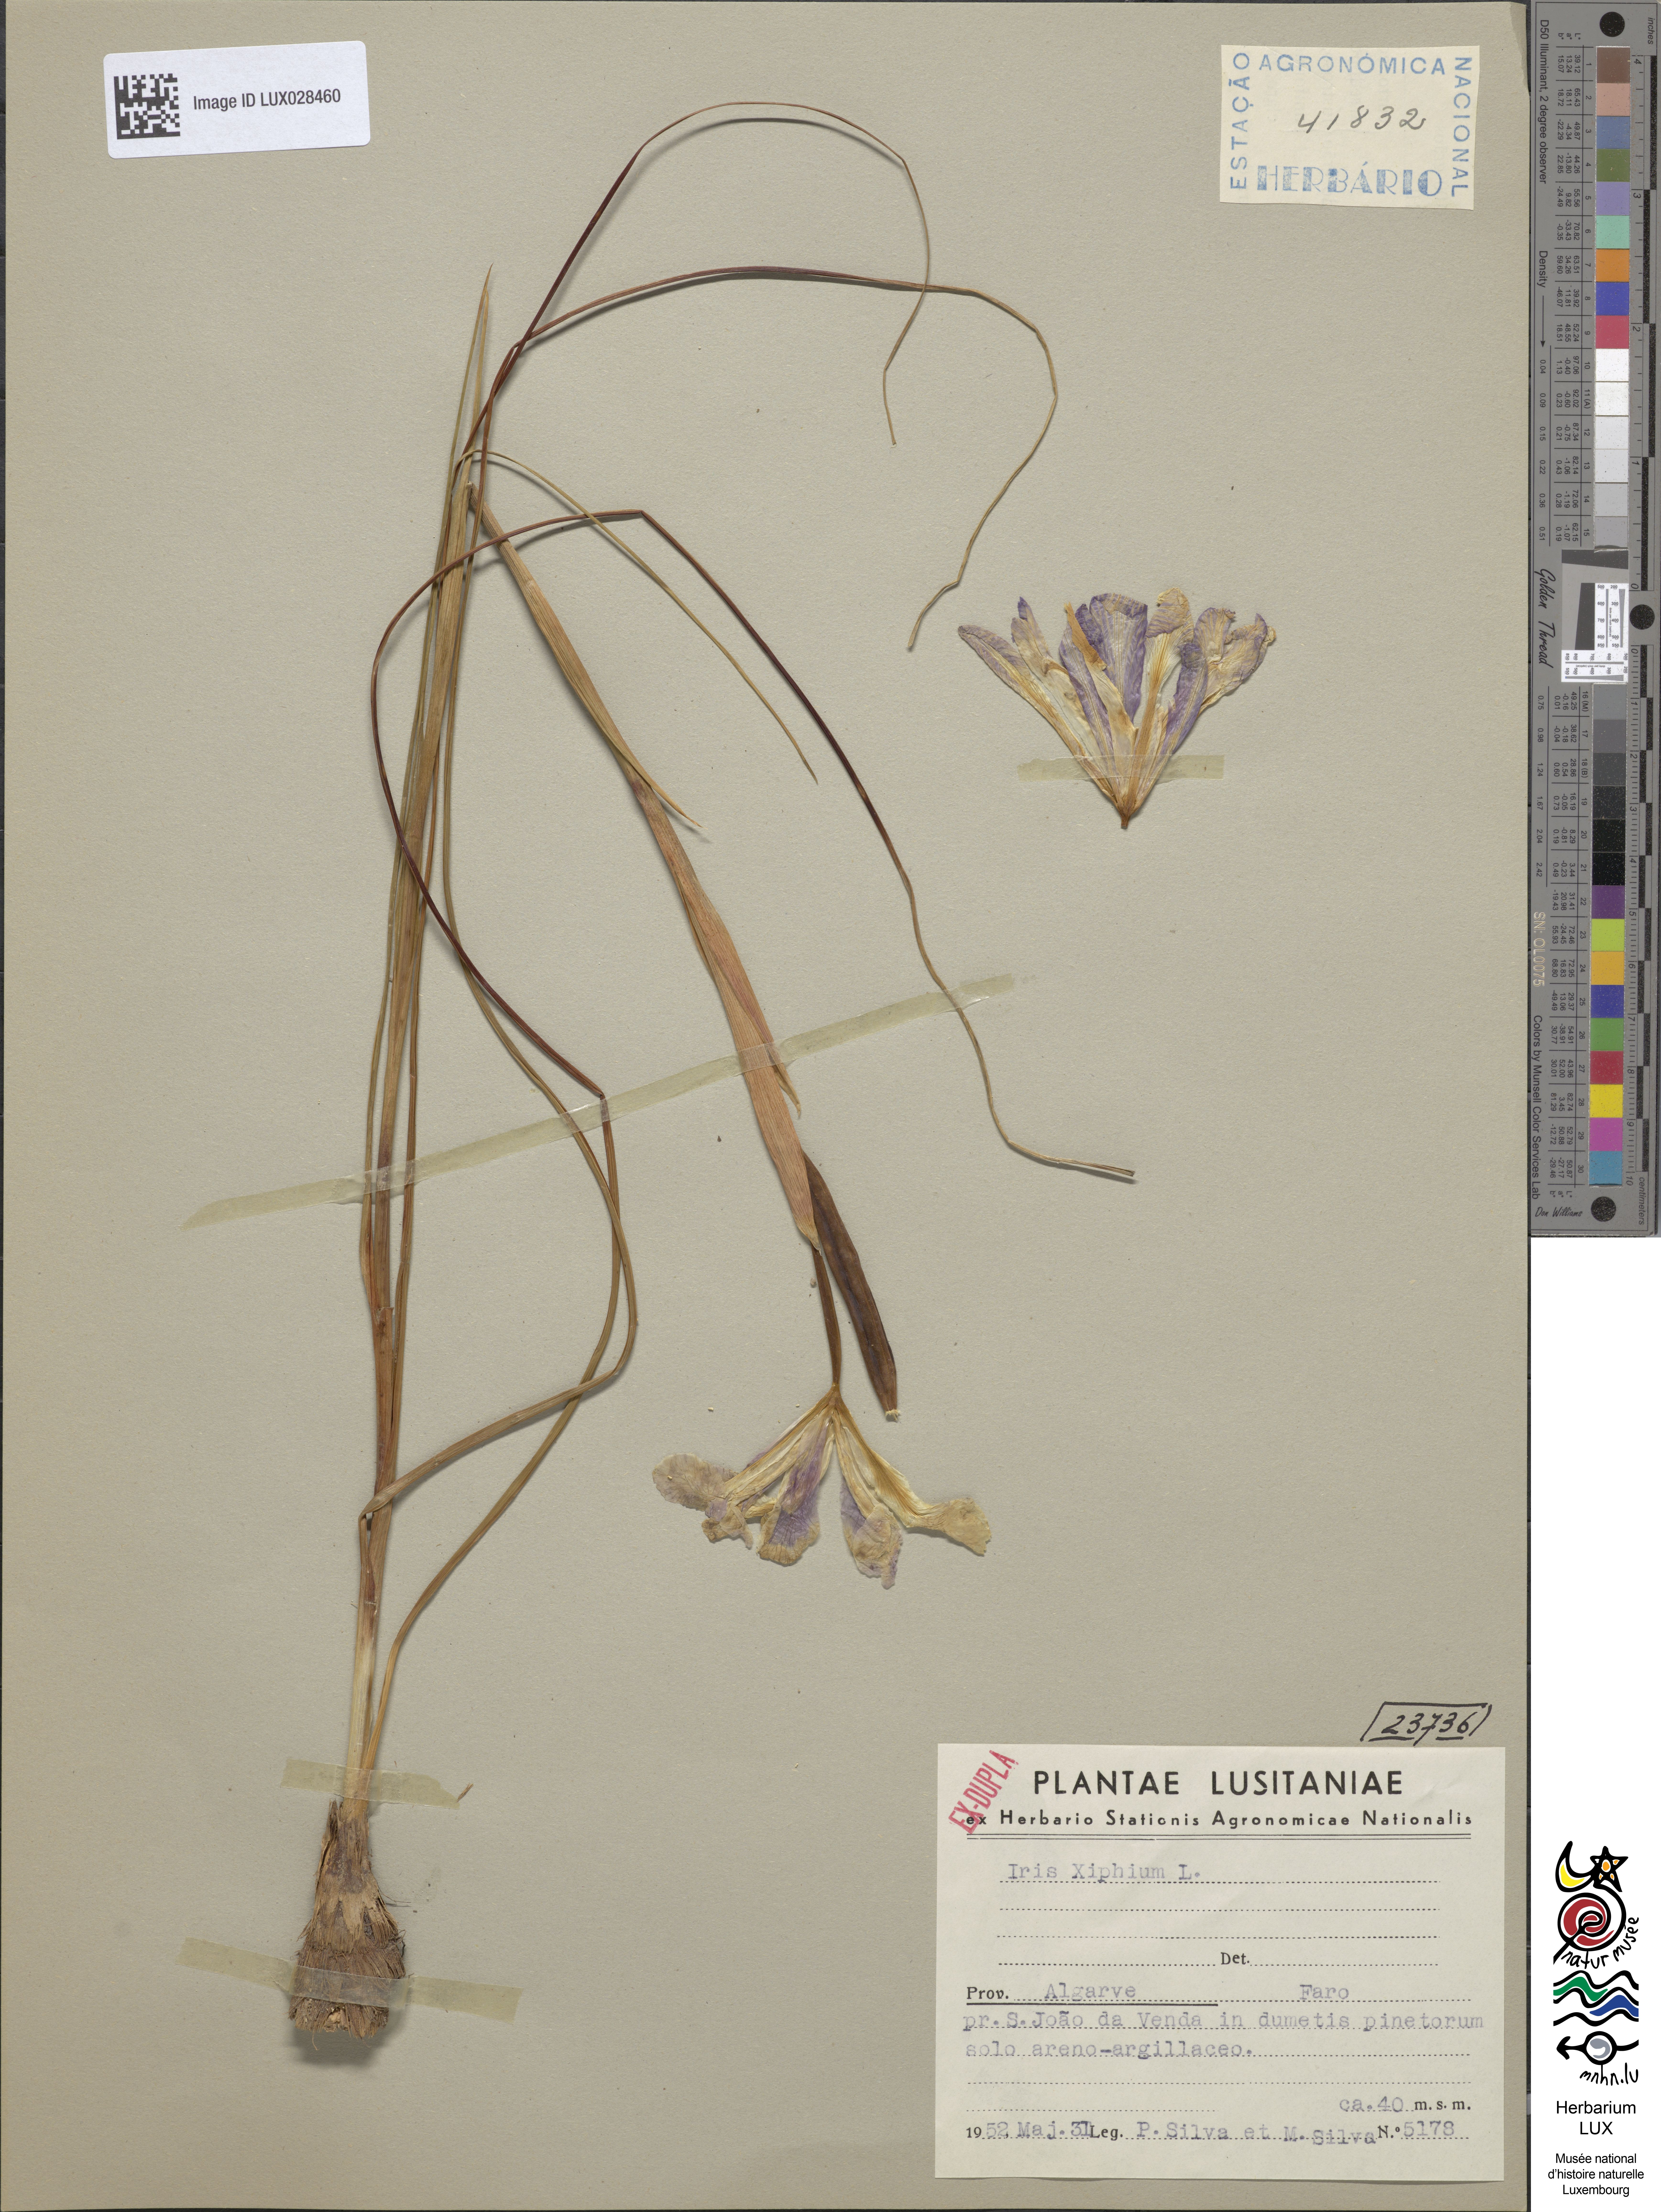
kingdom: Animalia
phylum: Arthropoda
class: Insecta
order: Mantodea
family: Eremiaphilidae
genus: Iris
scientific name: Iris
